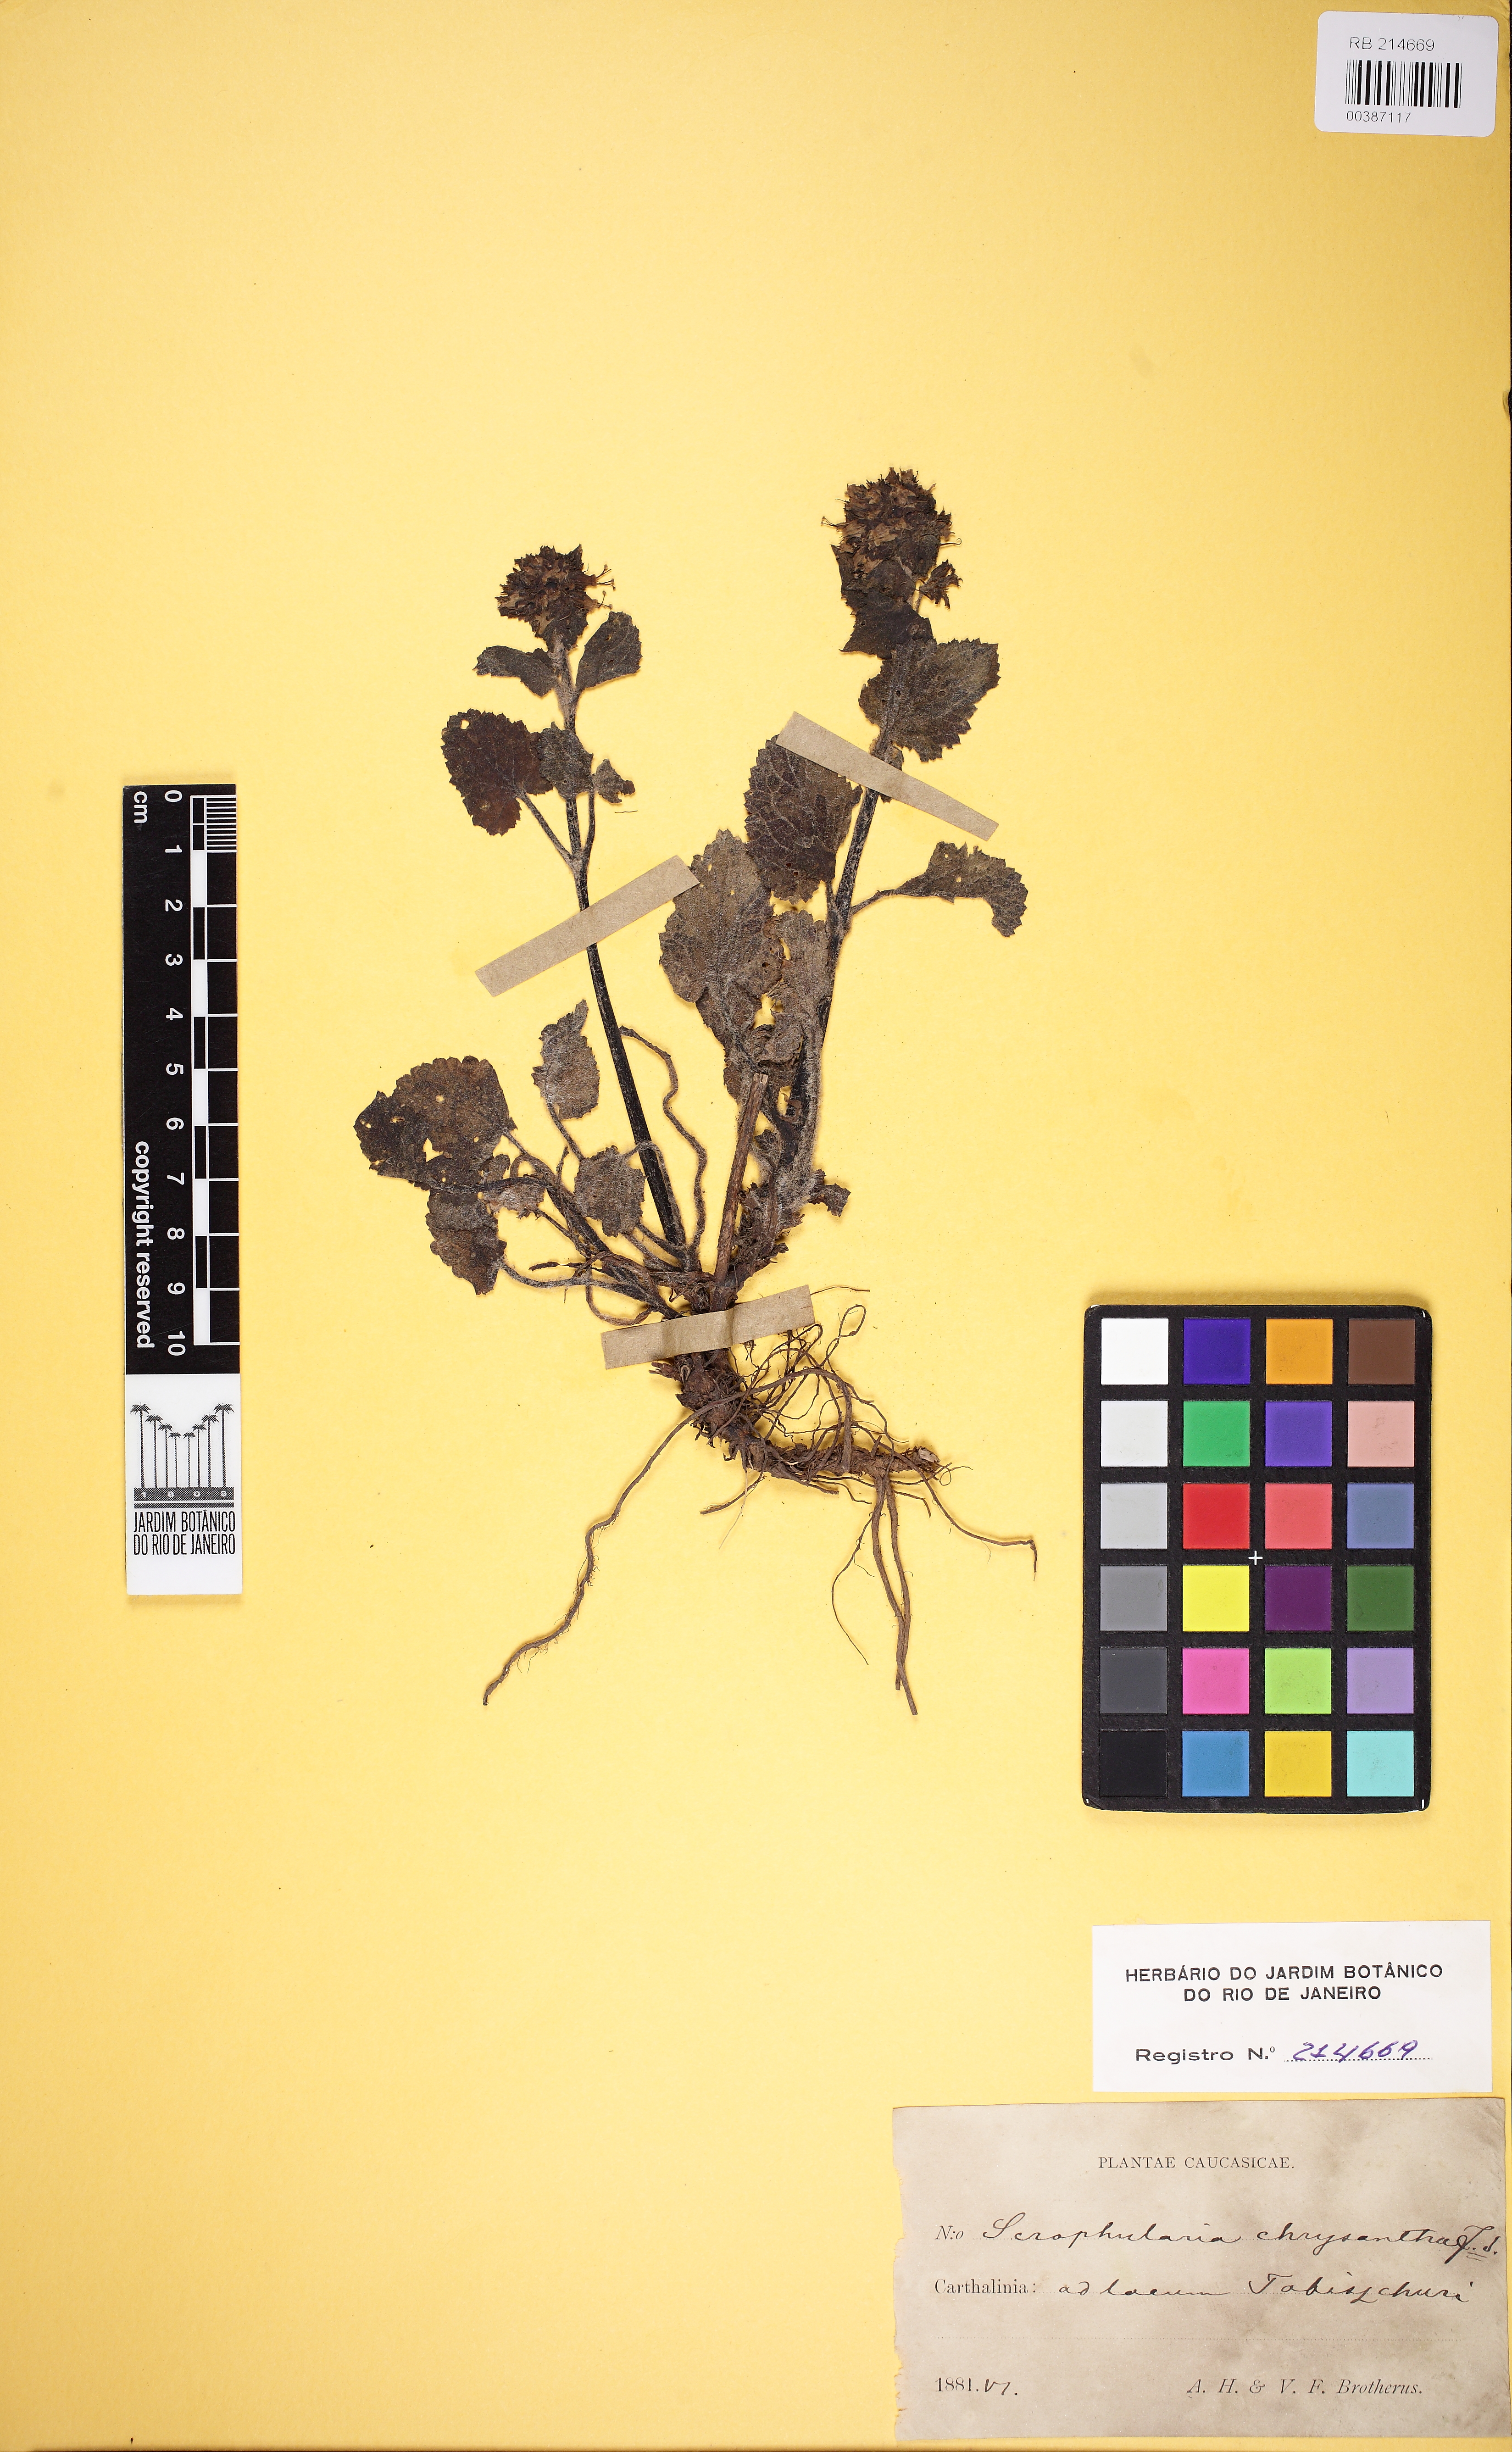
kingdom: Plantae
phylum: Tracheophyta
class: Magnoliopsida
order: Lamiales
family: Scrophulariaceae
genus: Scrophularia
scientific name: Scrophularia chrysantha
